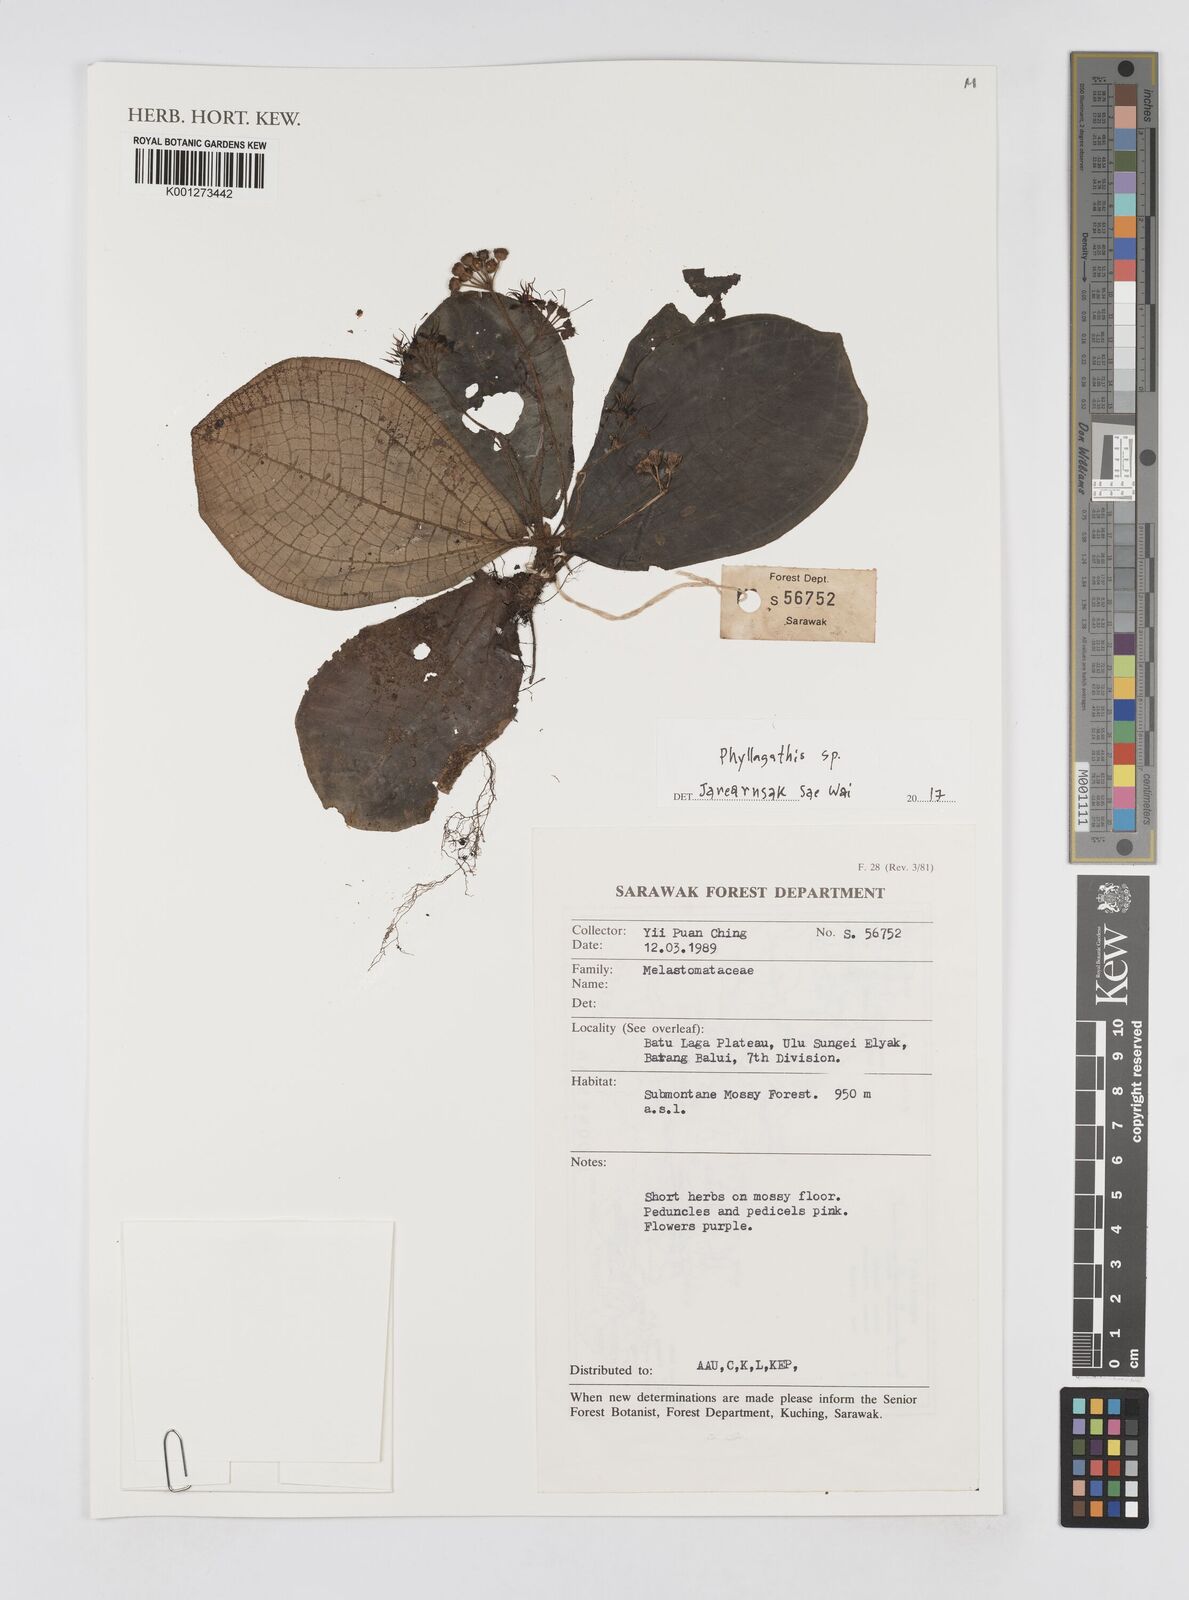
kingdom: Plantae
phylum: Tracheophyta
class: Polypodiopsida
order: Cyatheales
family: Cyatheaceae
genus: Sphaeropteris
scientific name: Sphaeropteris werneri
